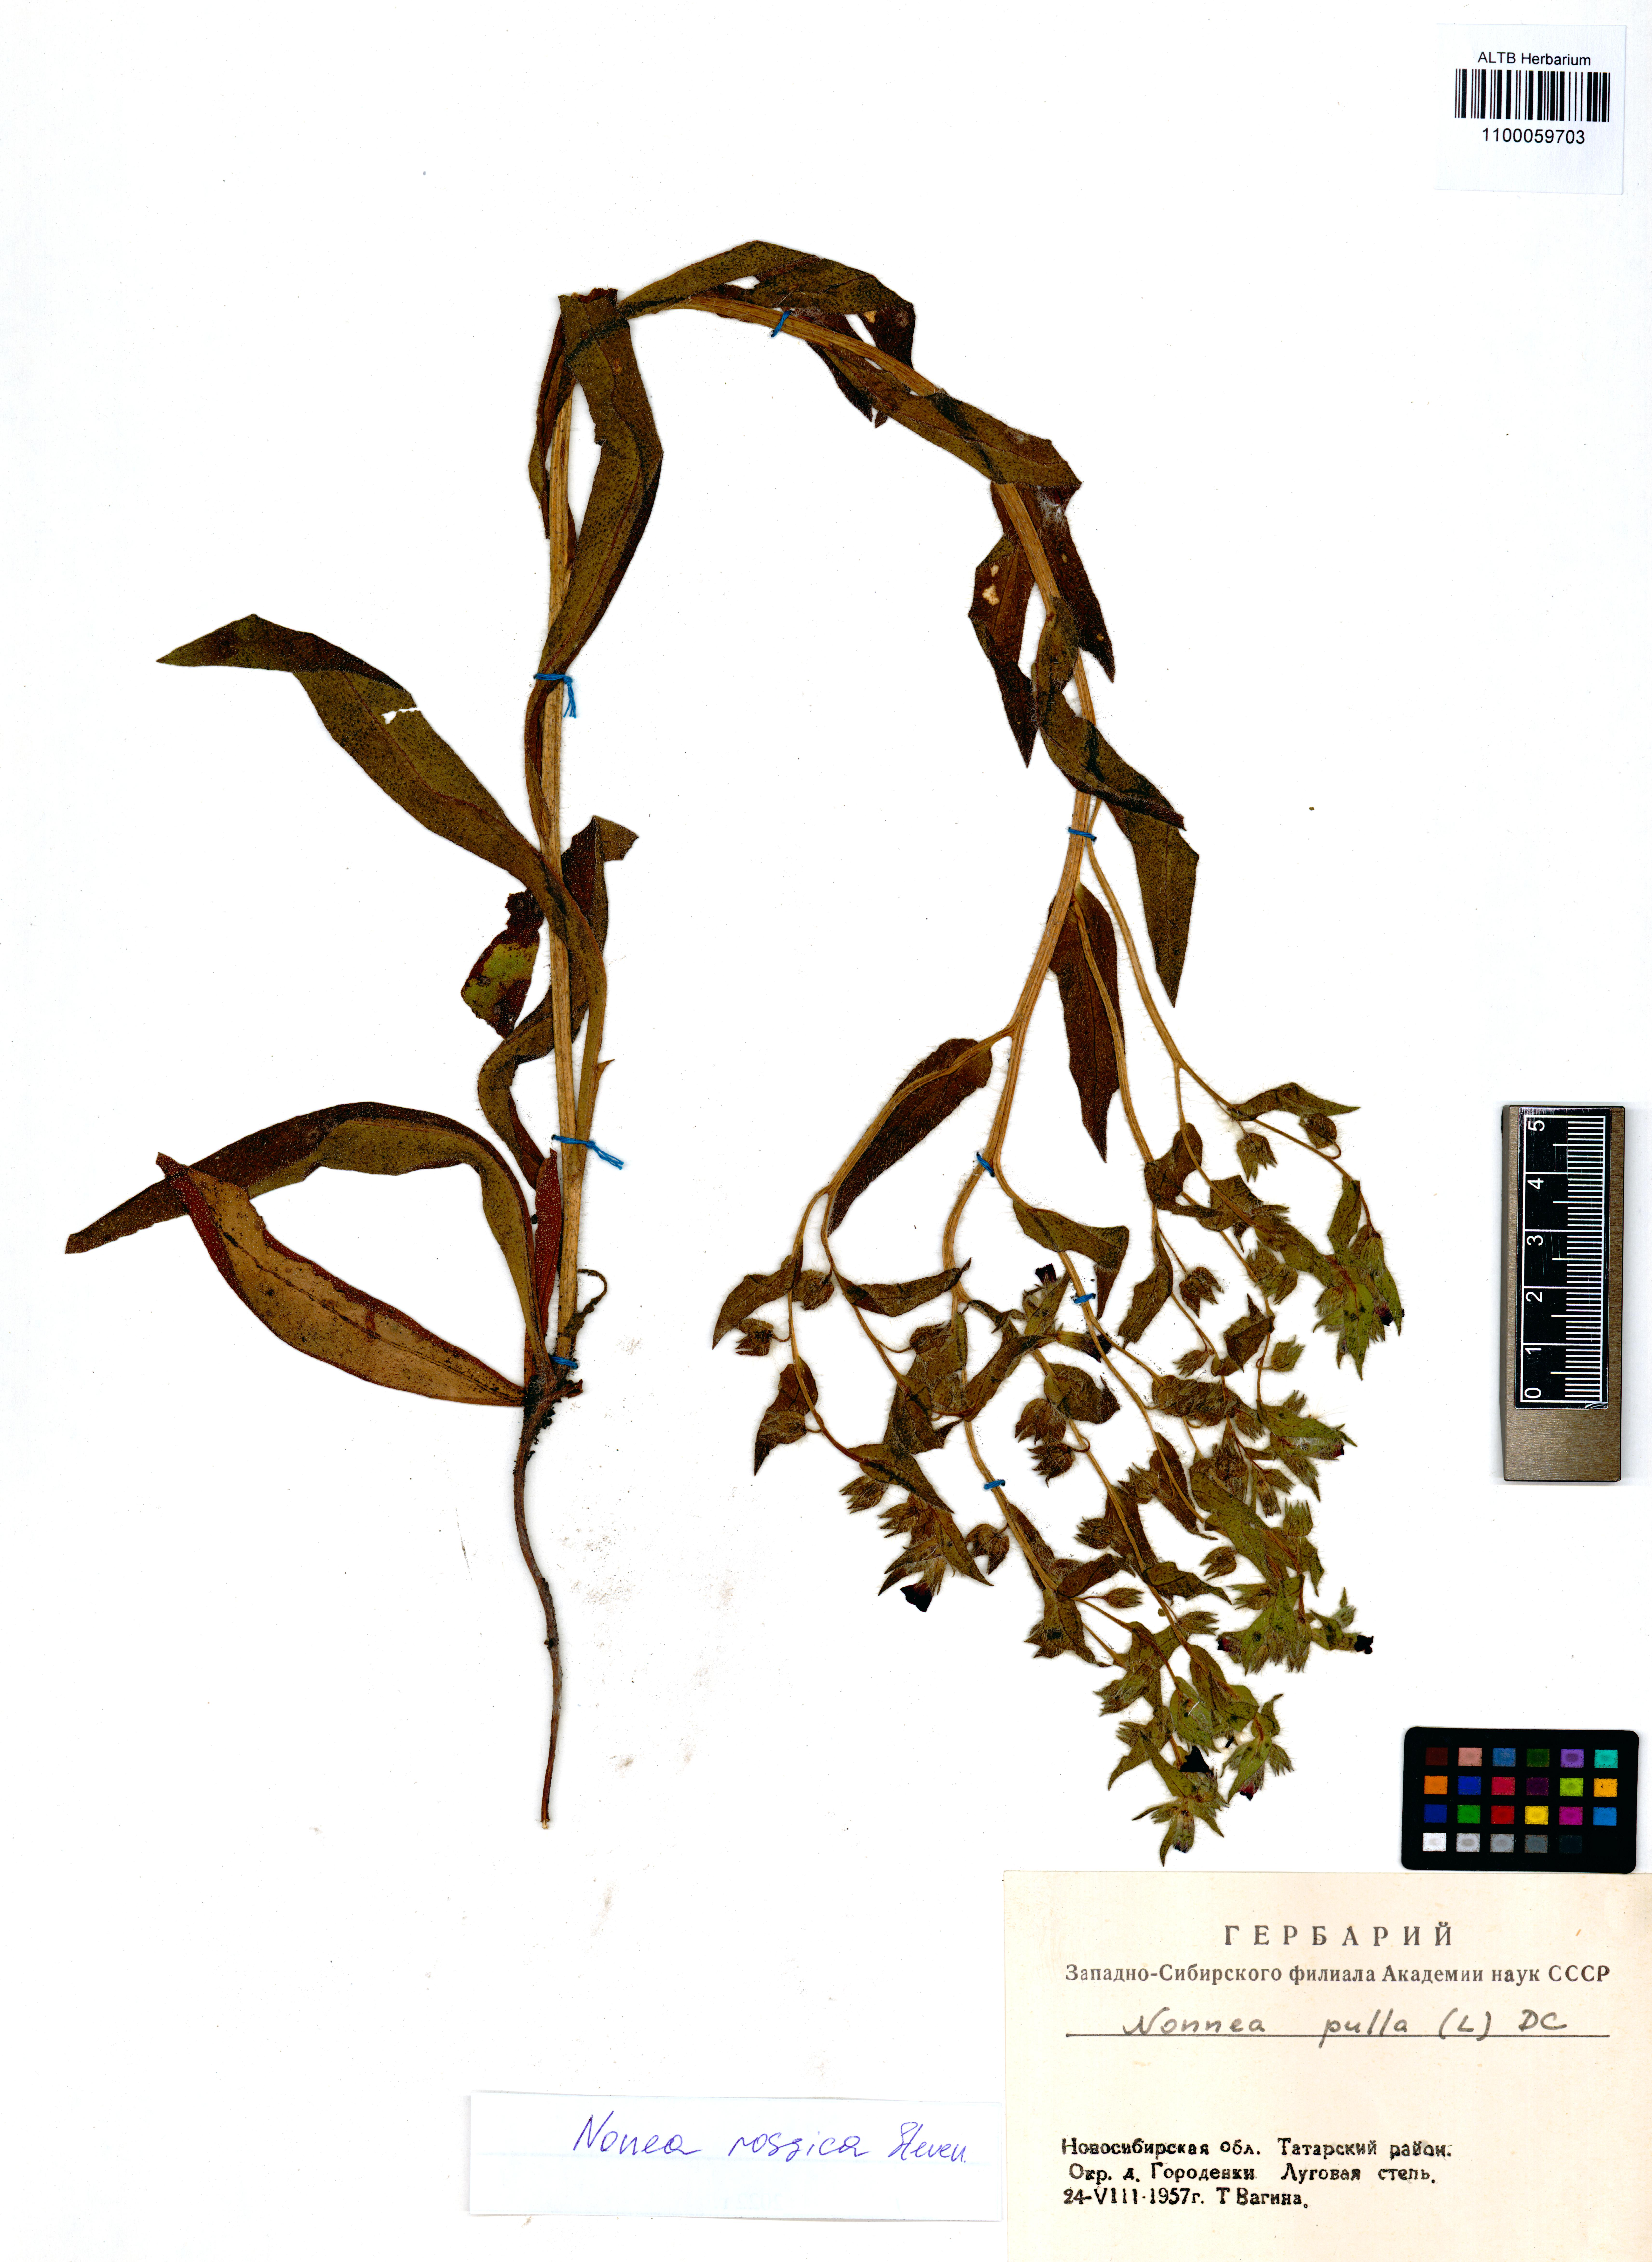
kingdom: Plantae
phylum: Tracheophyta
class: Magnoliopsida
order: Boraginales
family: Boraginaceae
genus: Nonea
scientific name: Nonea pulla
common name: Brown nonea
